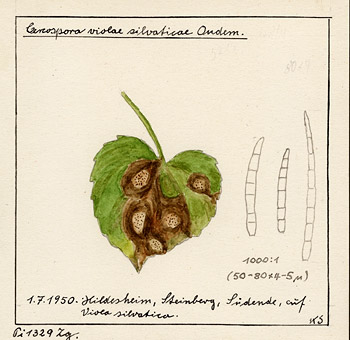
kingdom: Plantae
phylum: Tracheophyta
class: Magnoliopsida
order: Malpighiales
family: Violaceae
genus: Viola
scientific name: Viola riviniana
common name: Common dog-violet
